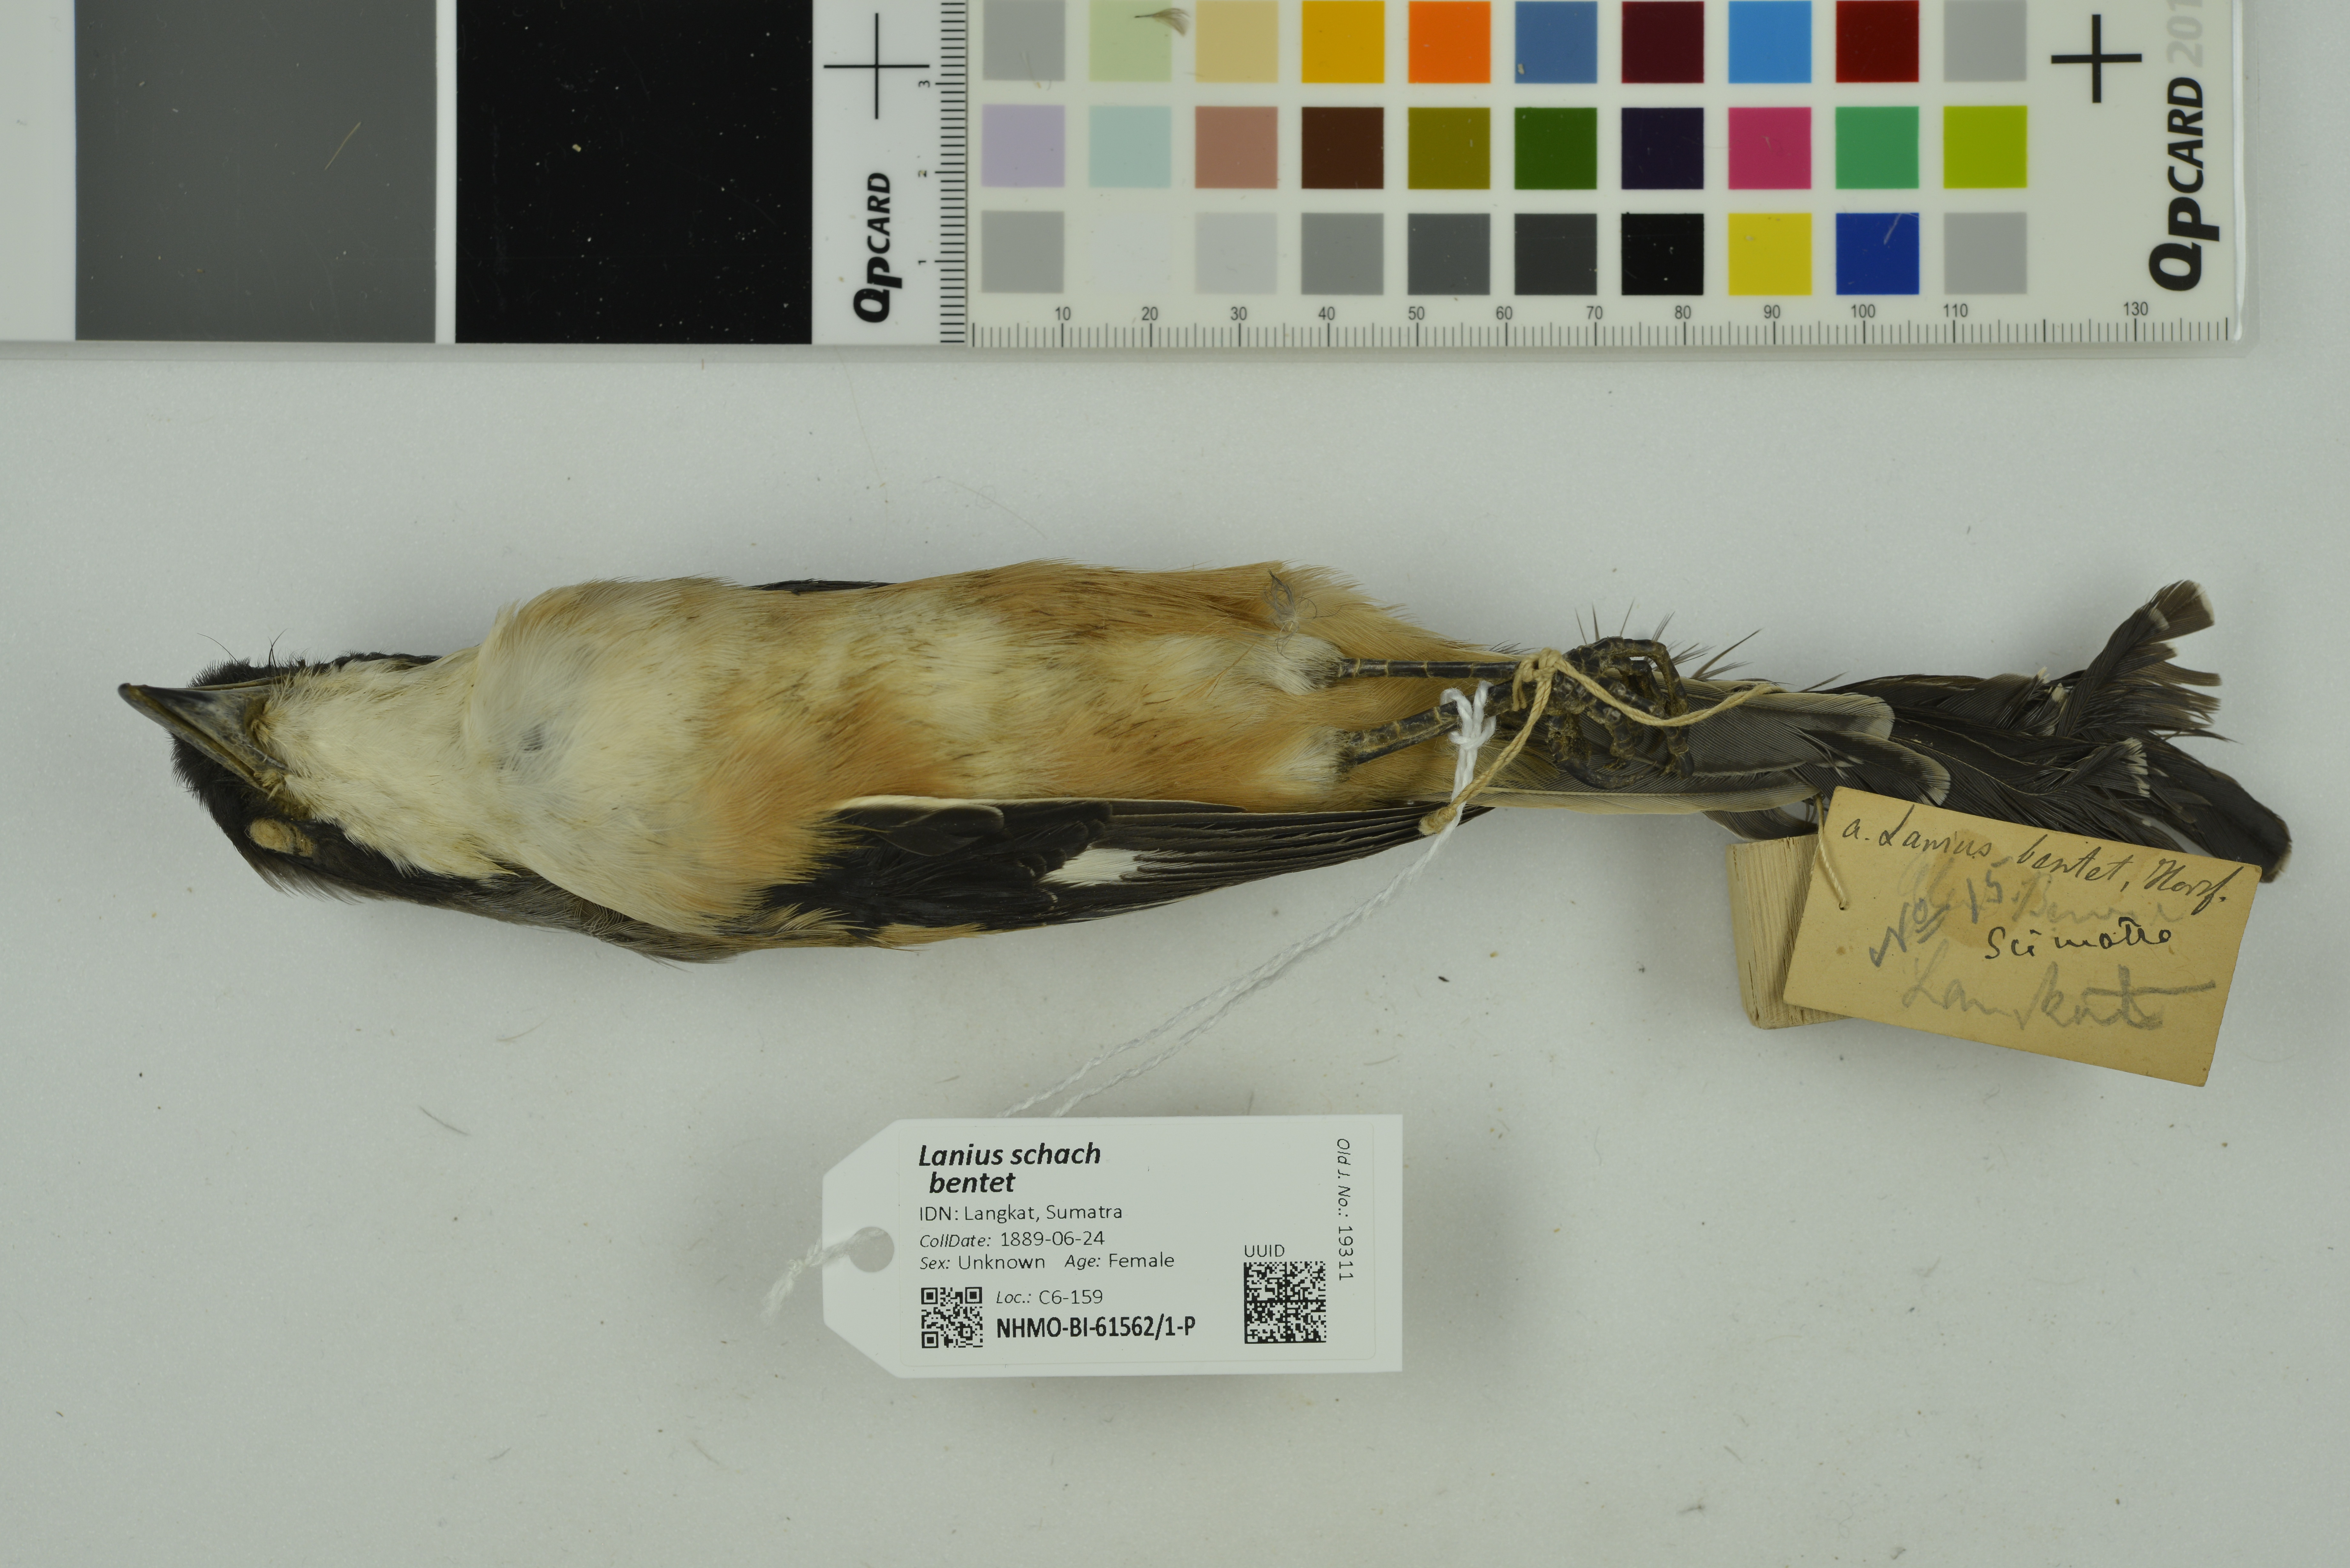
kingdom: Animalia
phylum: Chordata
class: Aves
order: Passeriformes
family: Laniidae
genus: Lanius
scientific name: Lanius schach
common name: Long-tailed shrike
